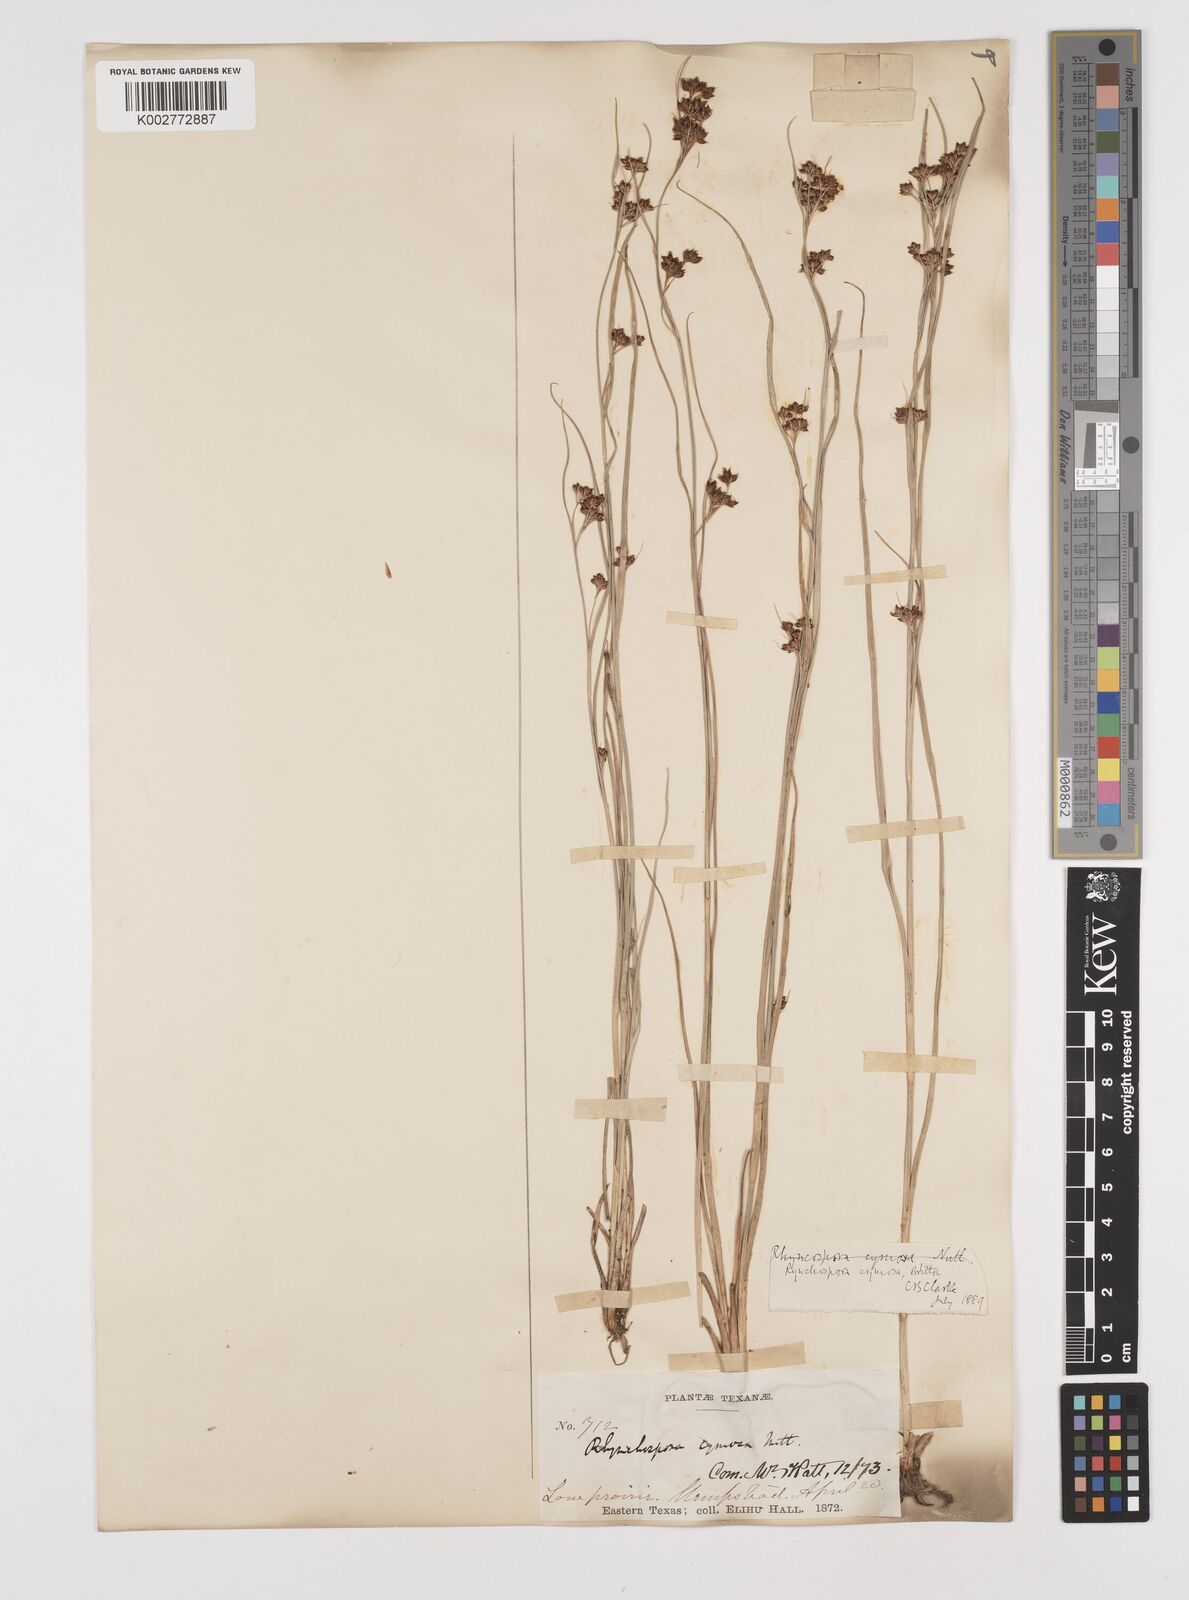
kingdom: Plantae
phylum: Tracheophyta
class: Liliopsida
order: Poales
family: Cyperaceae
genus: Scirpus
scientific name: Scirpus polyphyllus
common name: Leafy bulrush
